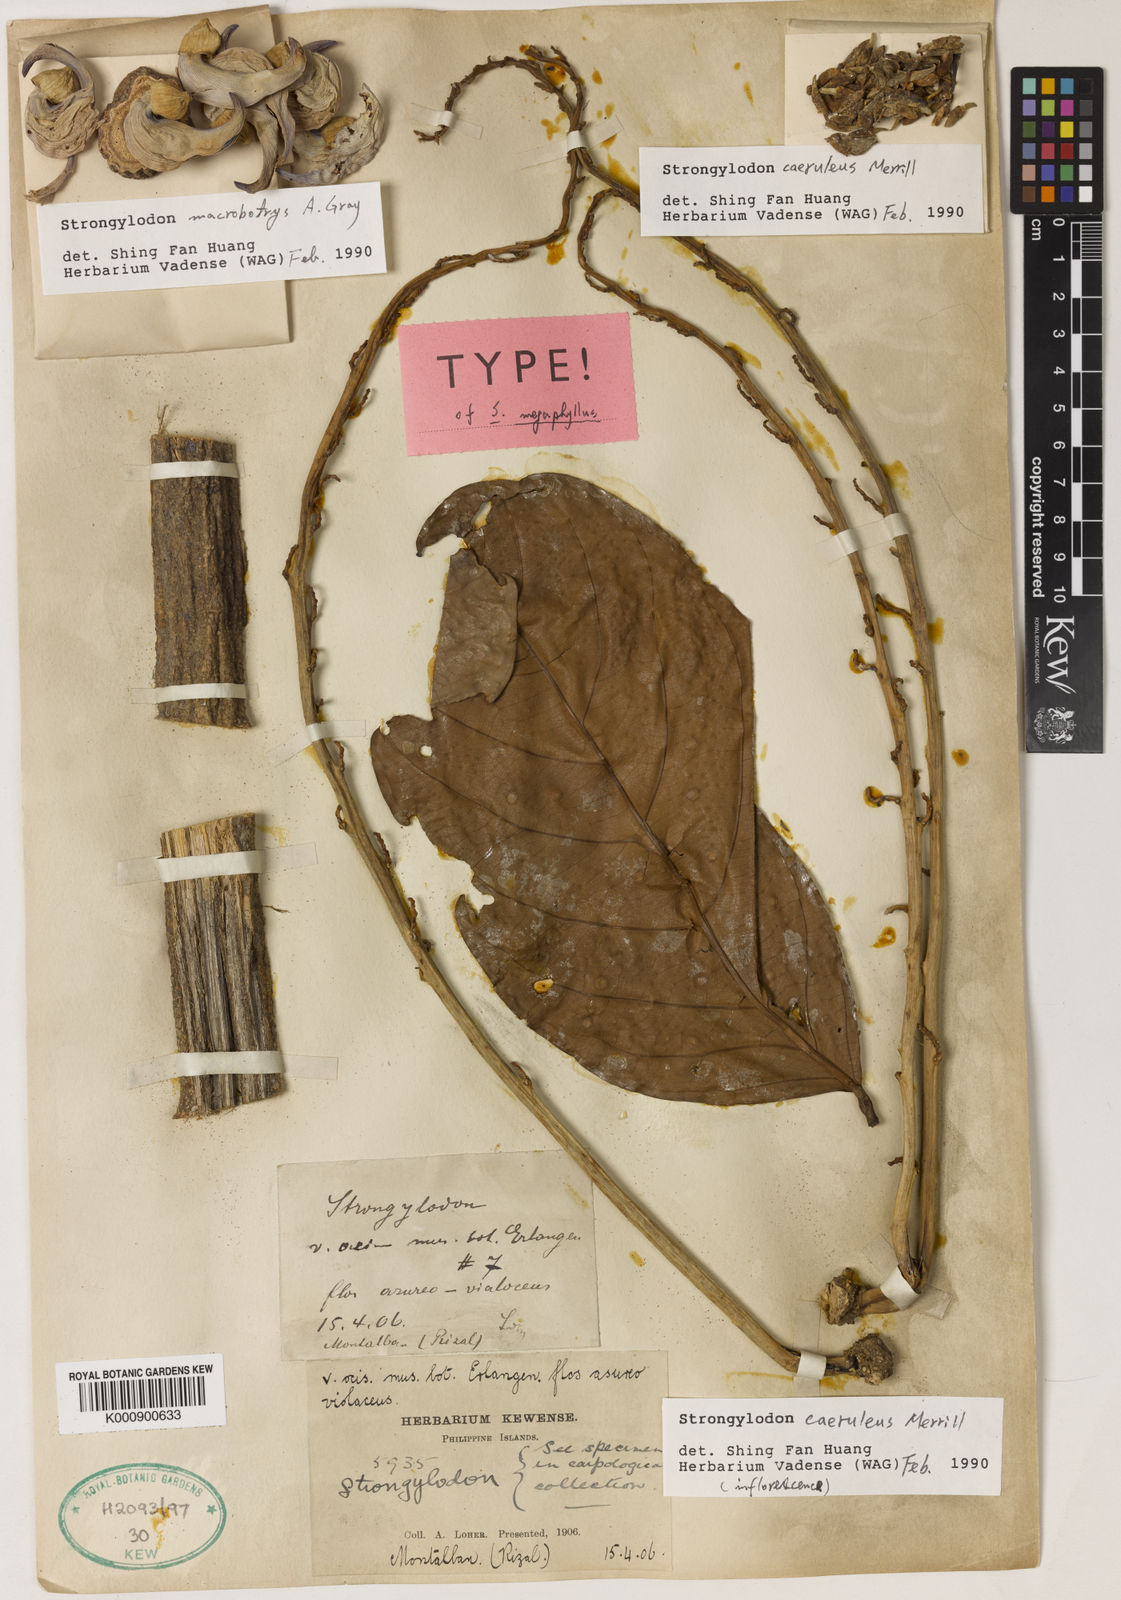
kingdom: Plantae
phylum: Tracheophyta
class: Magnoliopsida
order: Fabales
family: Fabaceae
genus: Strongylodon
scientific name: Strongylodon caeruleus
